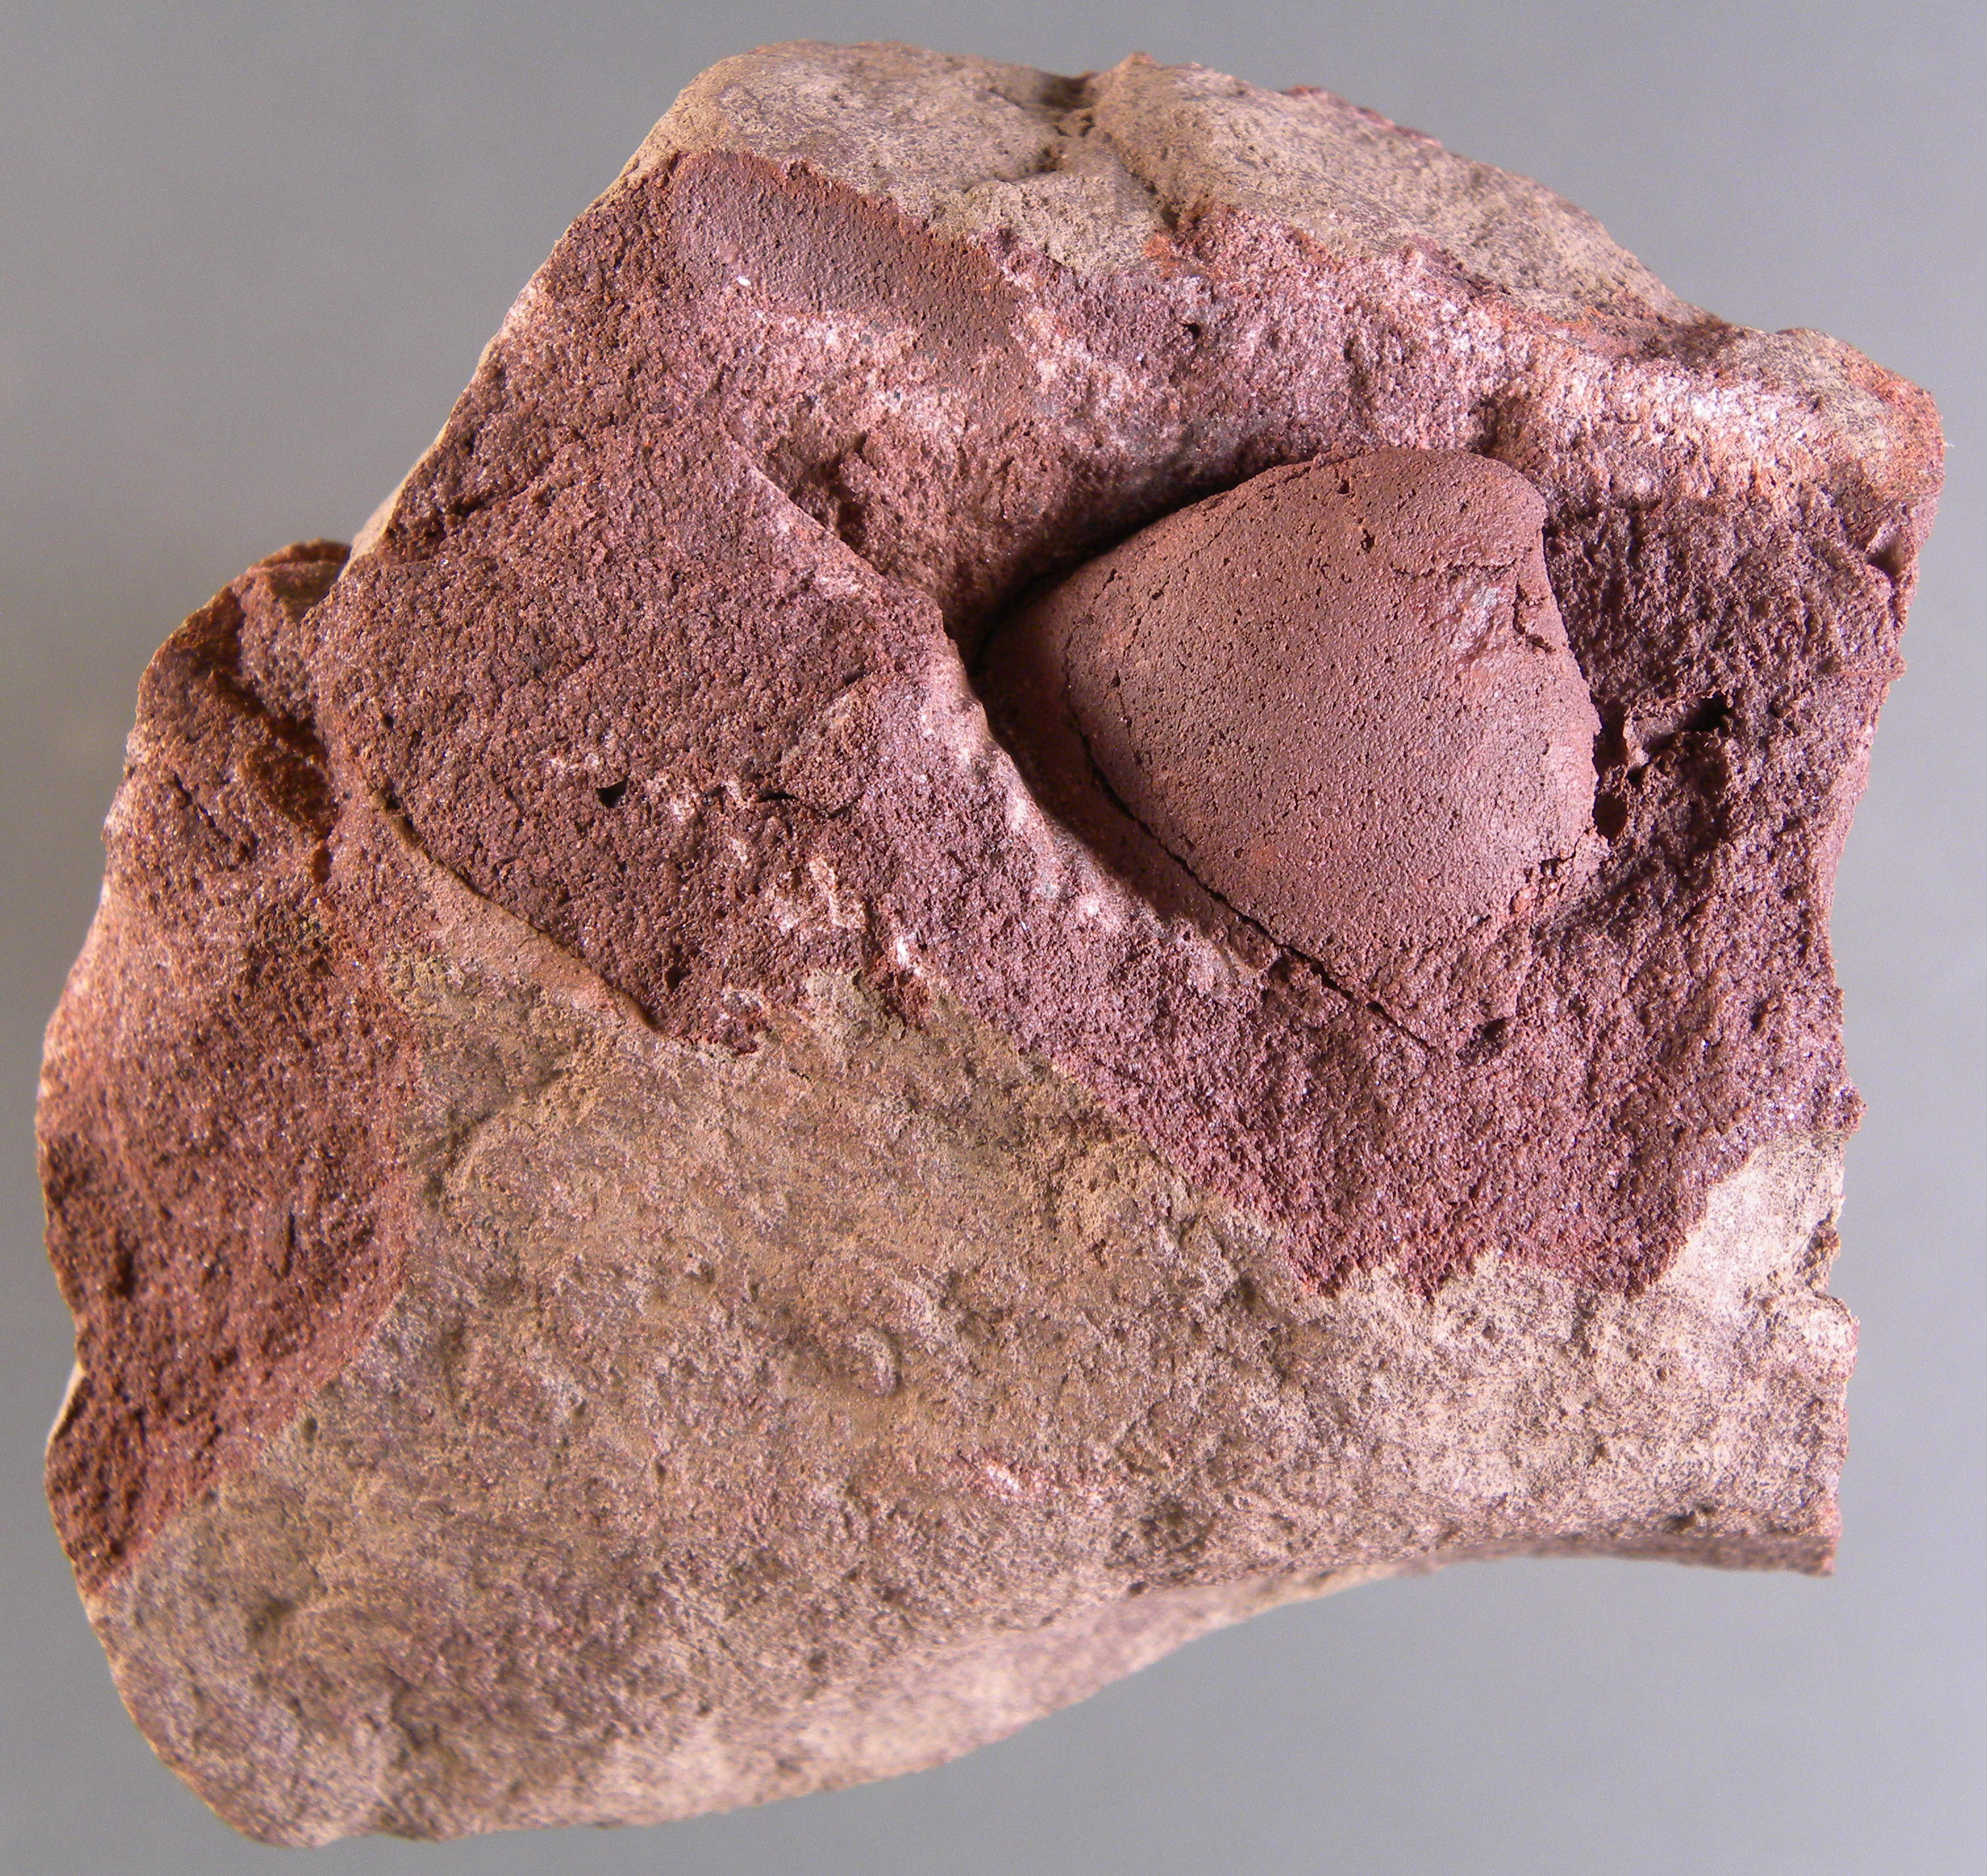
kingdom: Animalia
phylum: Mollusca
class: Bivalvia
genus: Rhenanomya
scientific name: Rhenanomya
